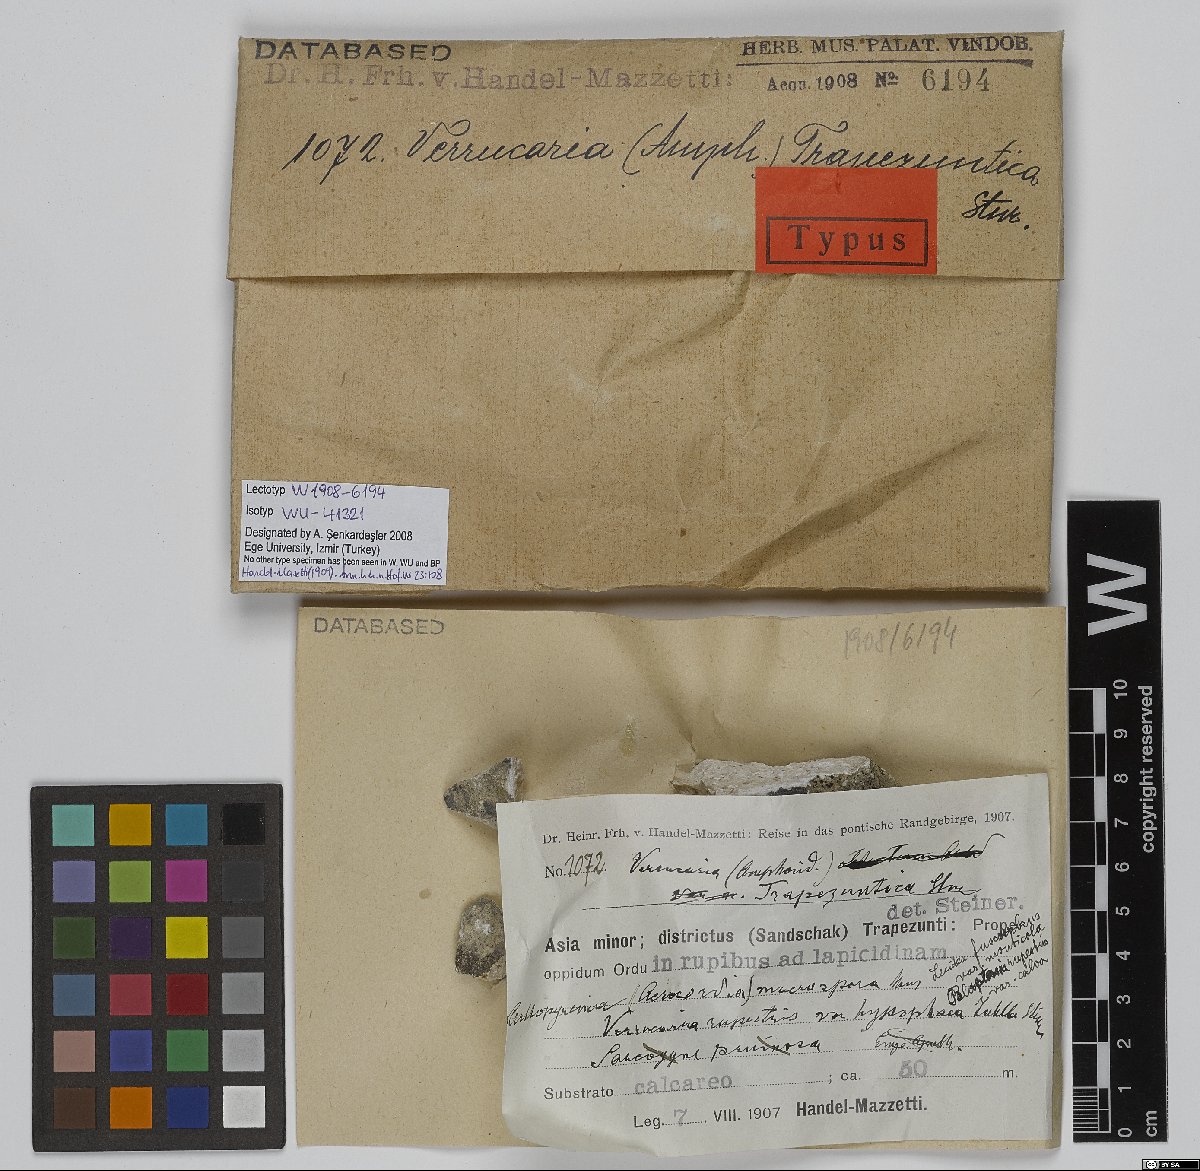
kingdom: Fungi
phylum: Ascomycota
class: Eurotiomycetes
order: Verrucariales
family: Verrucariaceae
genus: Verrucaria
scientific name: Verrucaria
